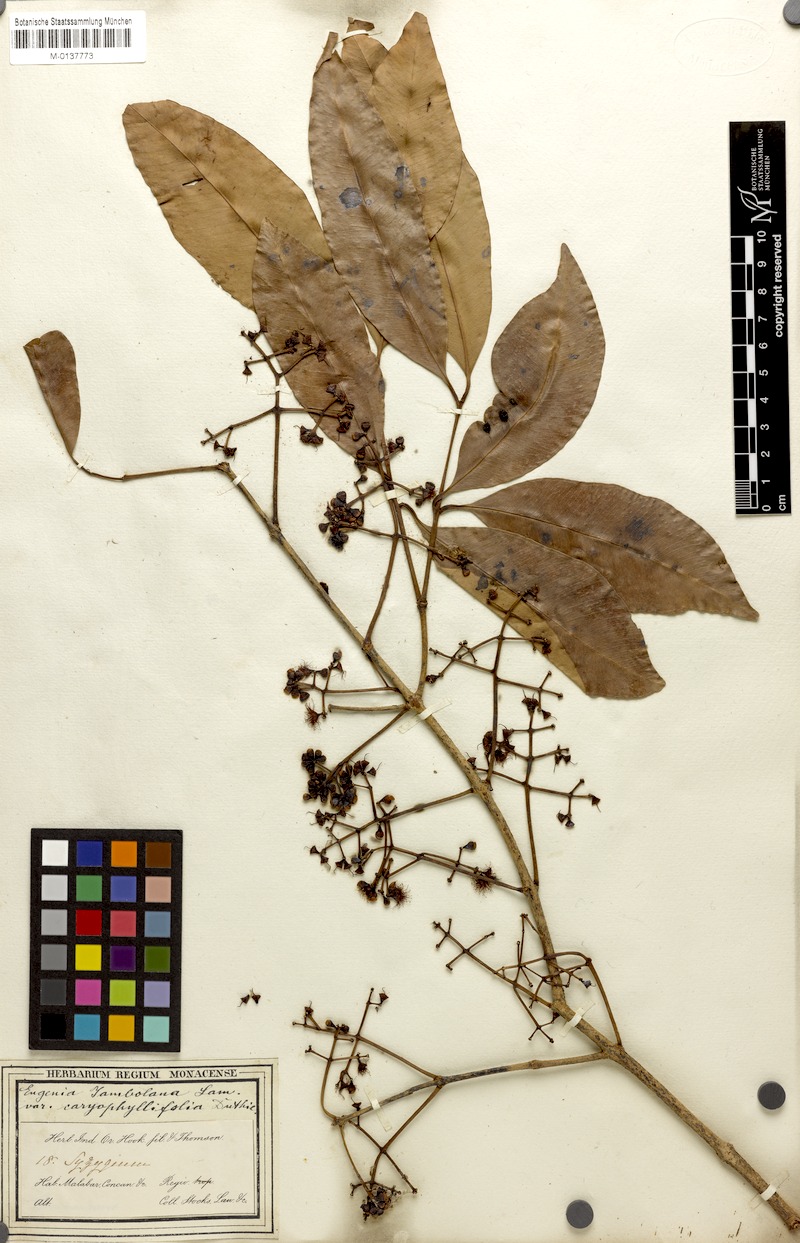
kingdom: Plantae
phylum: Tracheophyta
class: Magnoliopsida
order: Myrtales
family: Myrtaceae
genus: Syzygium
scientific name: Syzygium cumini
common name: Java plum
